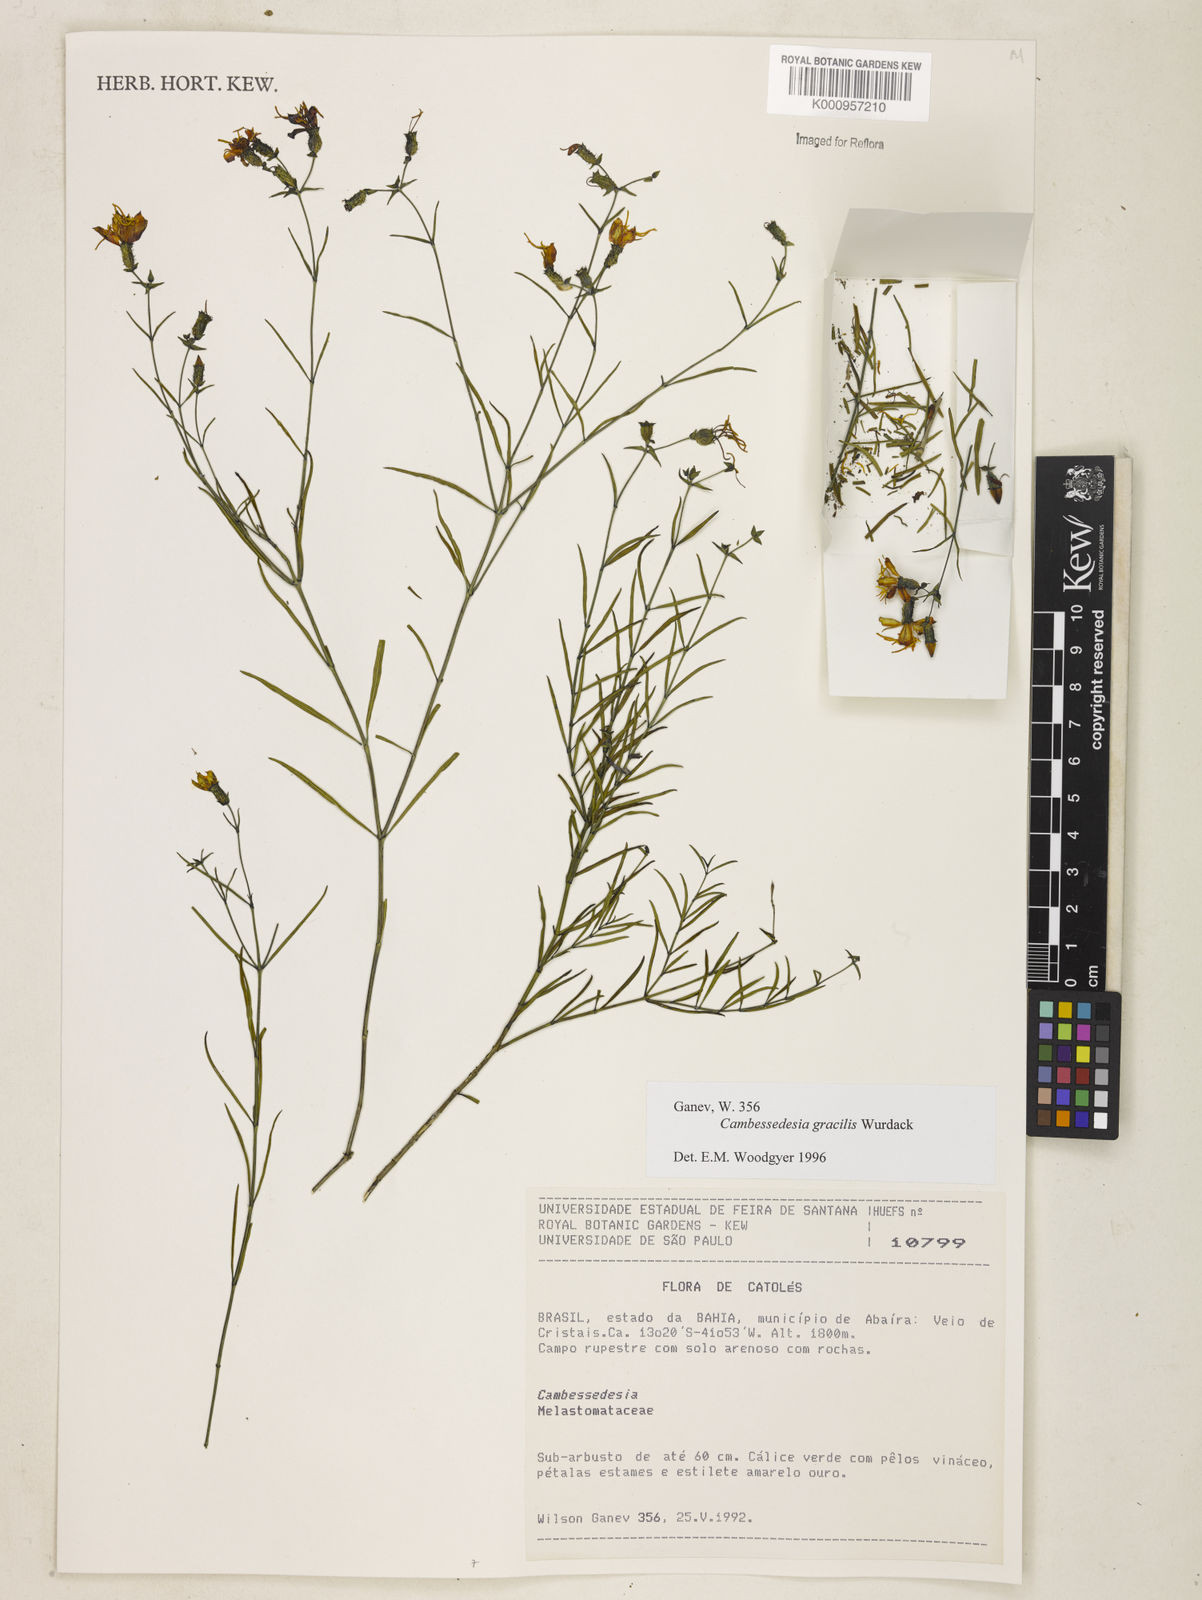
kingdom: Plantae
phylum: Tracheophyta
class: Magnoliopsida
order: Myrtales
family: Melastomataceae
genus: Cambessedesia
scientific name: Cambessedesia gracilis
